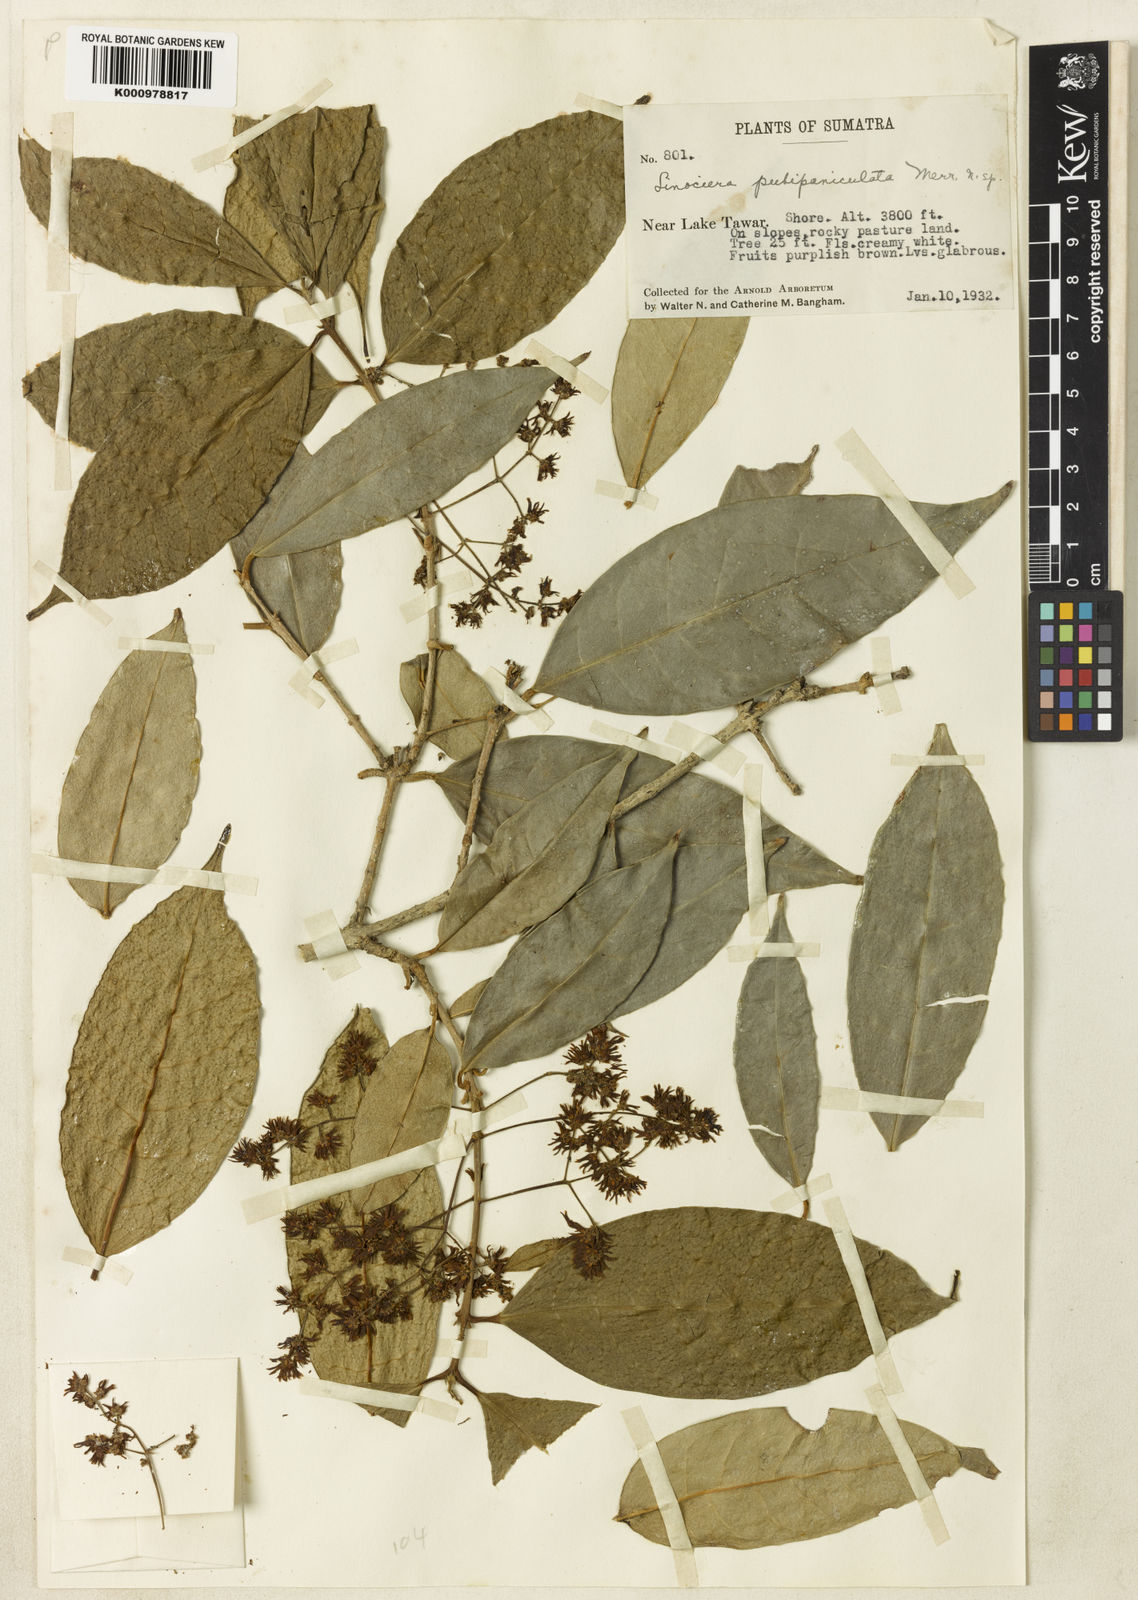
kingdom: Plantae
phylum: Tracheophyta
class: Magnoliopsida
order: Lamiales
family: Oleaceae
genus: Chionanthus
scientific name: Chionanthus
